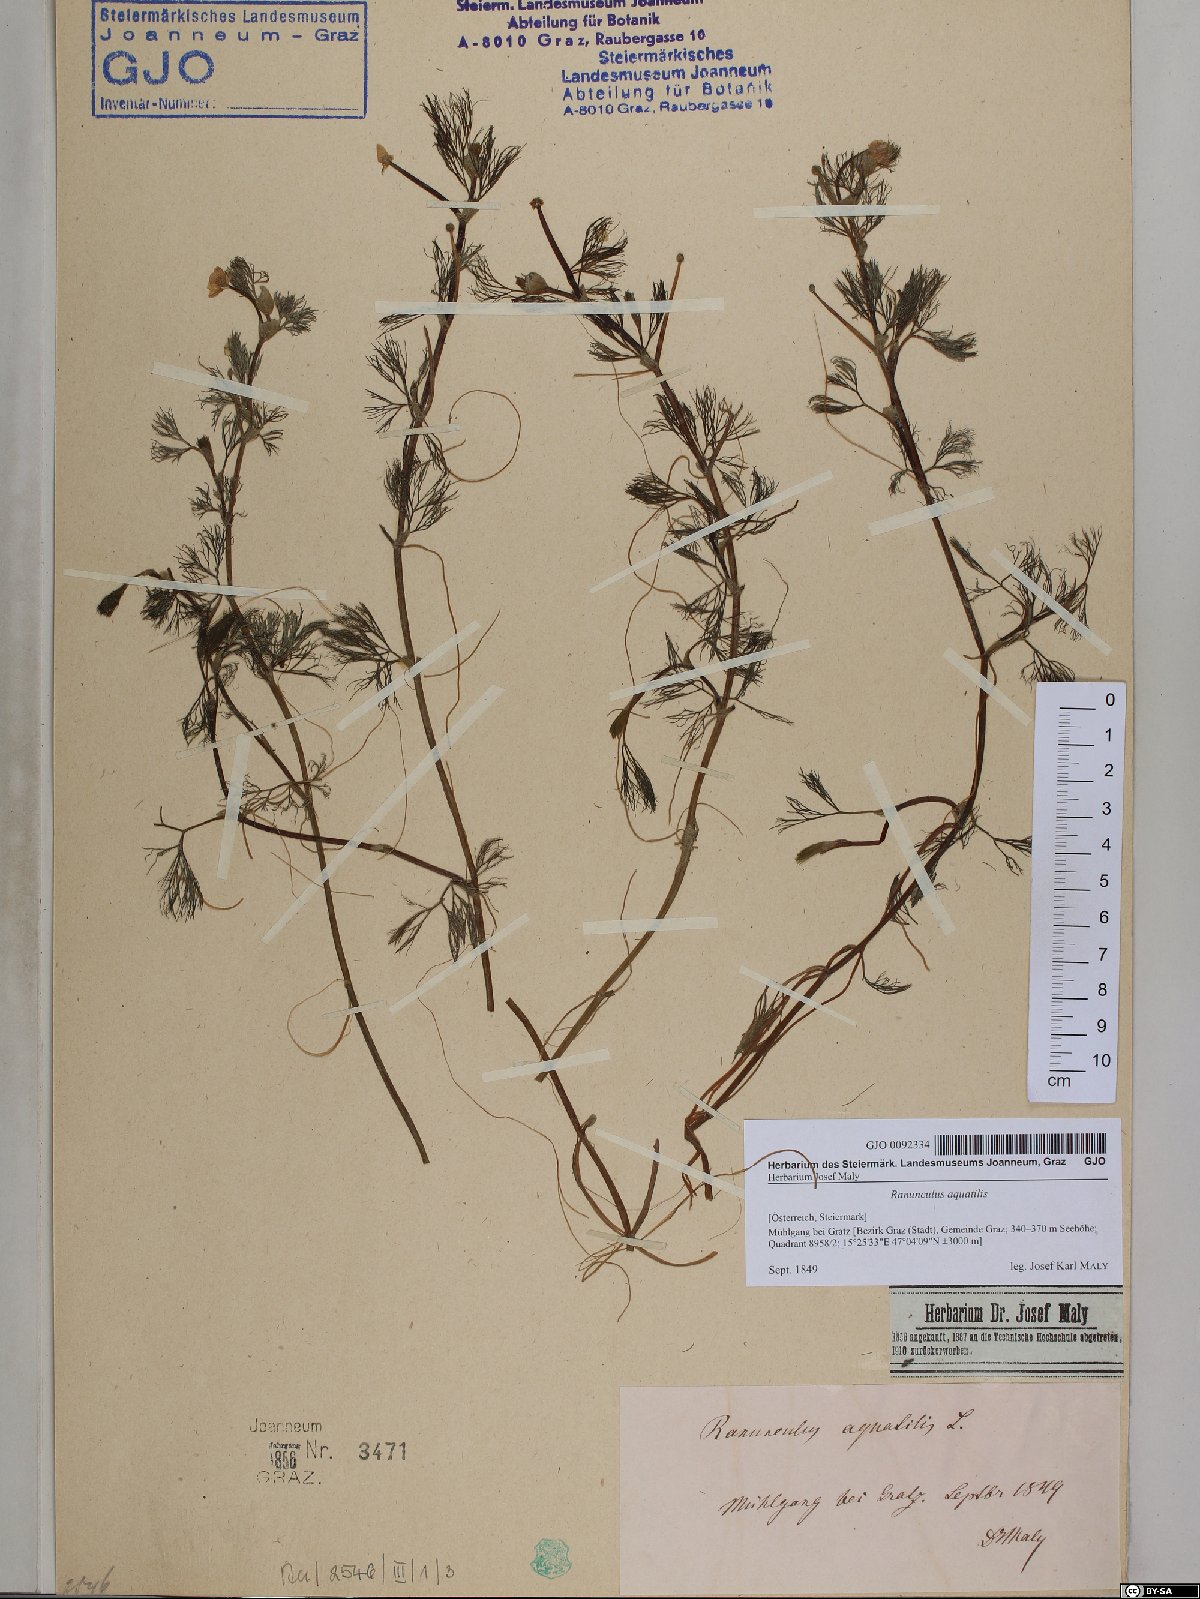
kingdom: Plantae
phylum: Tracheophyta
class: Magnoliopsida
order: Ranunculales
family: Ranunculaceae
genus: Ranunculus
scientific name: Ranunculus aquatilis
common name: Common water-crowfoot
